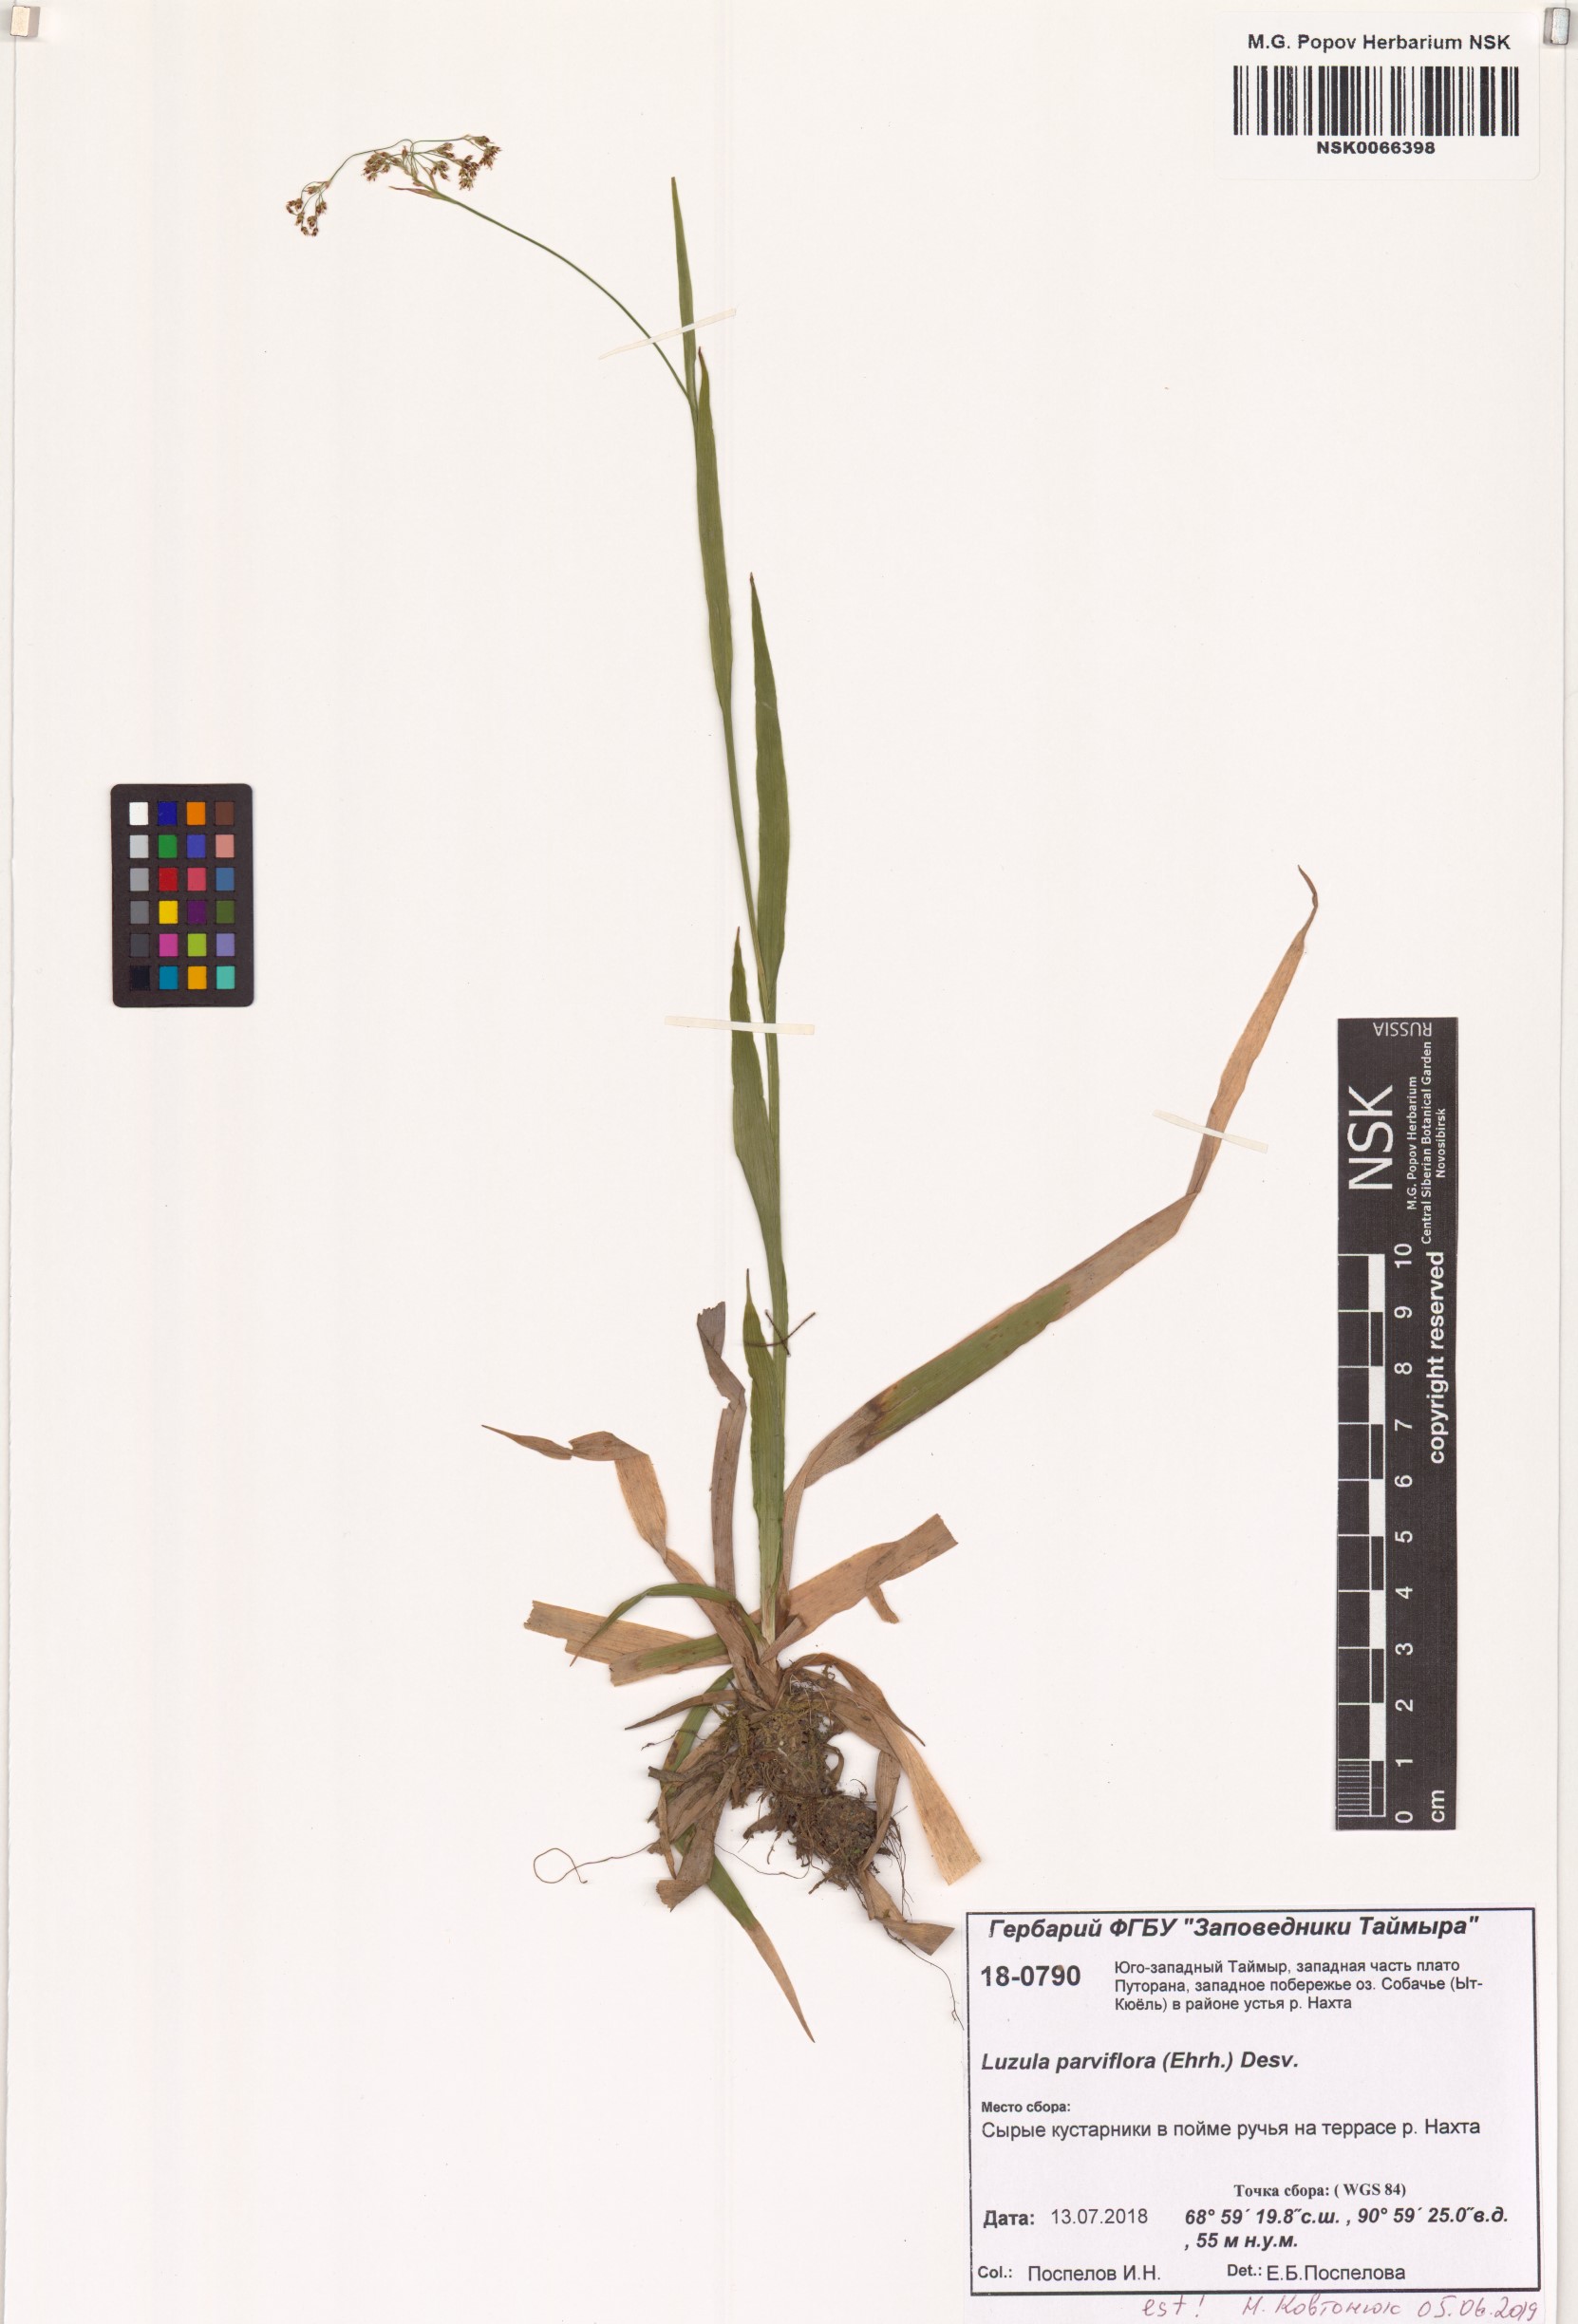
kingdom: Plantae
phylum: Tracheophyta
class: Liliopsida
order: Poales
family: Juncaceae
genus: Luzula
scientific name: Luzula parviflora
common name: Millet woodrush
